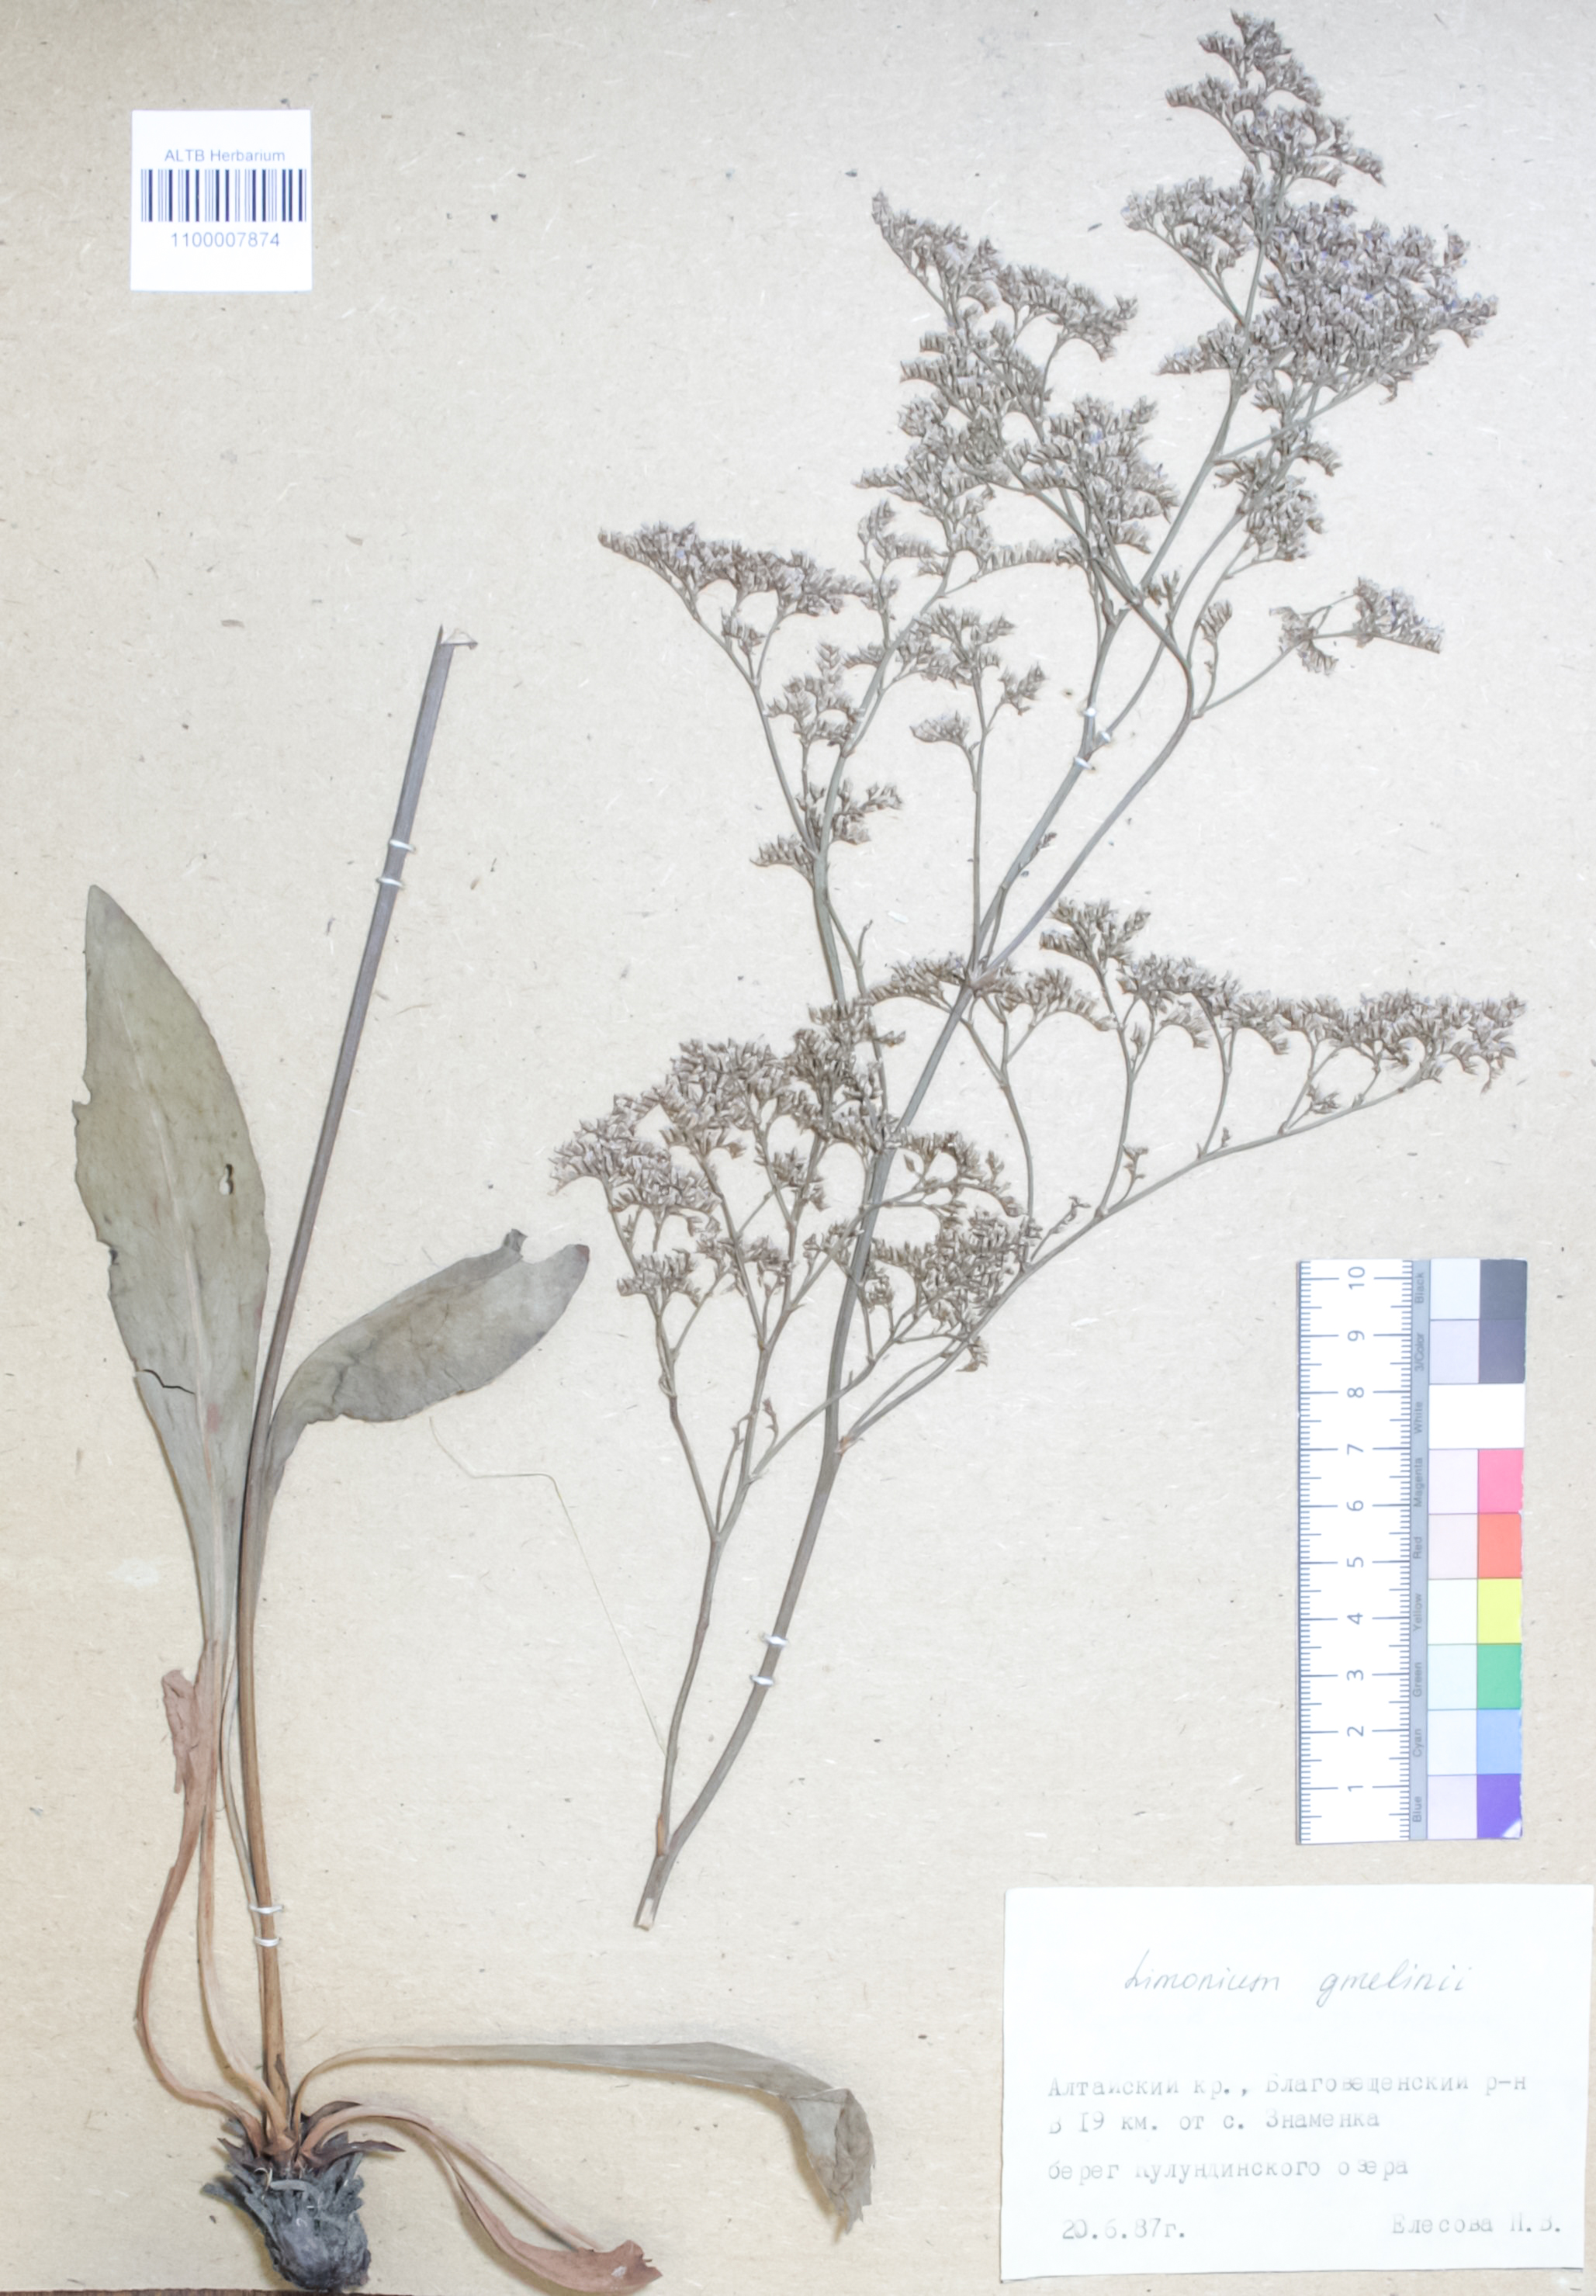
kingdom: Plantae
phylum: Tracheophyta
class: Magnoliopsida
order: Caryophyllales
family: Plumbaginaceae
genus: Limonium
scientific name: Limonium gmelini
